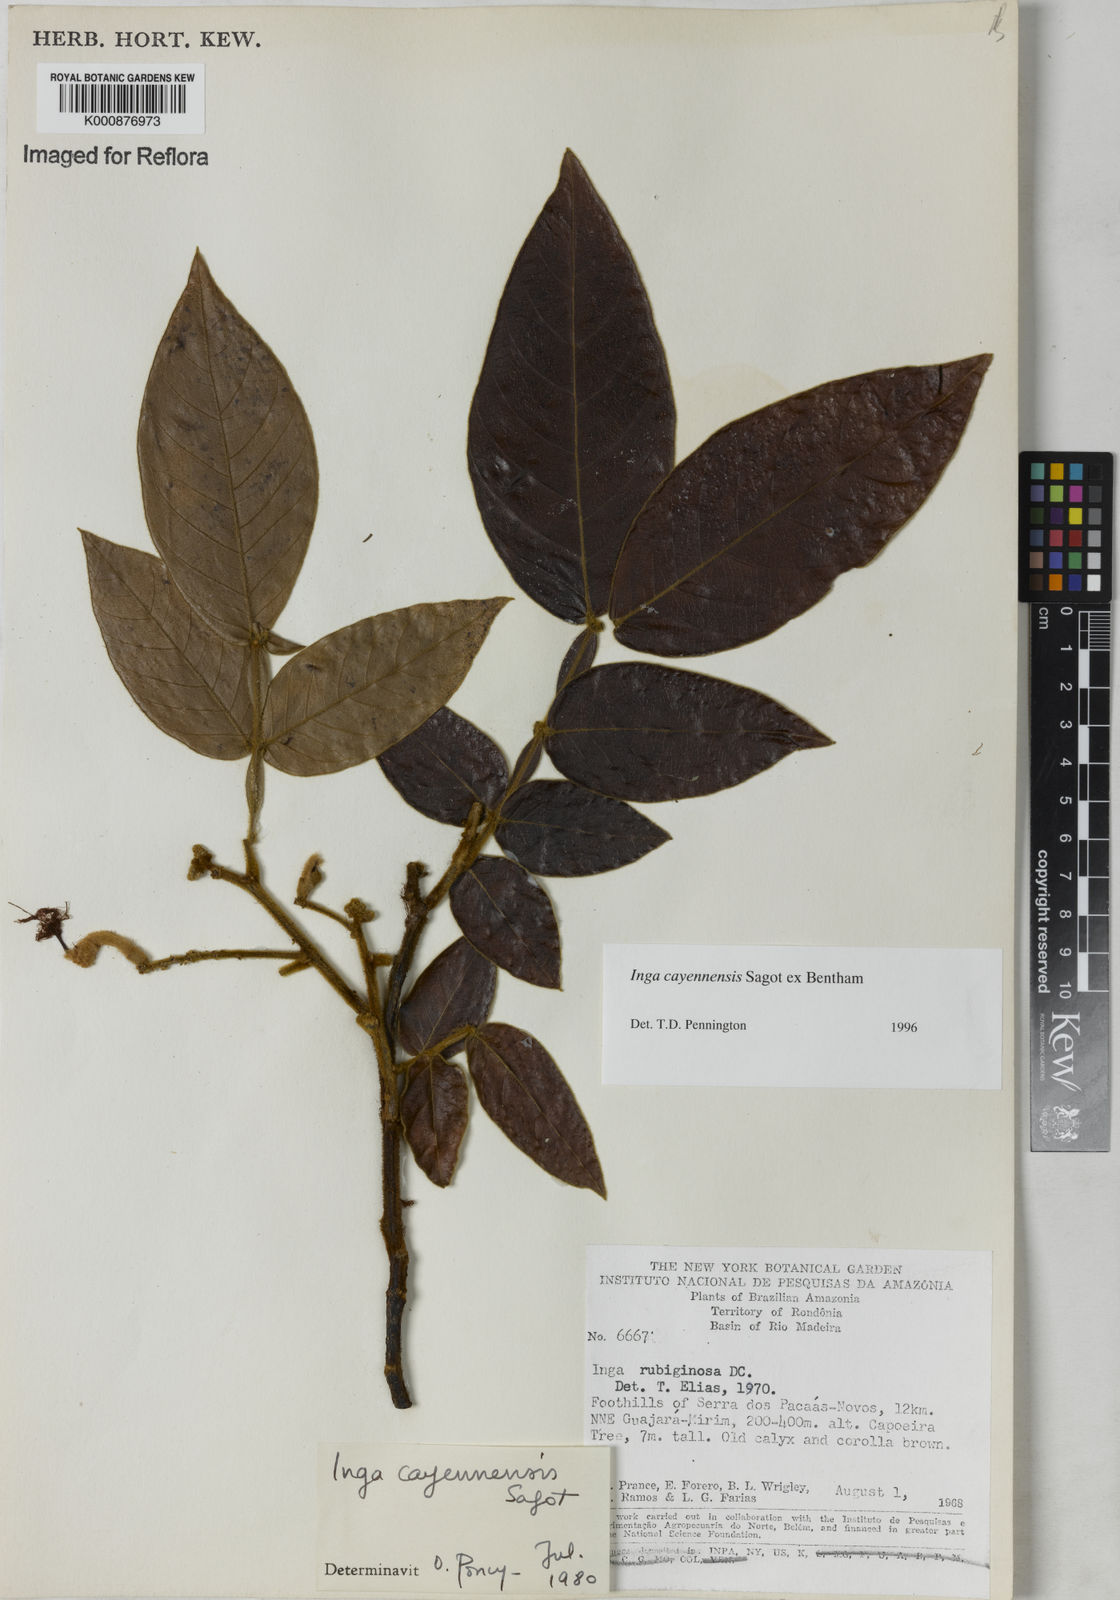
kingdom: Plantae
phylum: Tracheophyta
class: Magnoliopsida
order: Fabales
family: Fabaceae
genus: Inga
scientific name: Inga cayennensis
